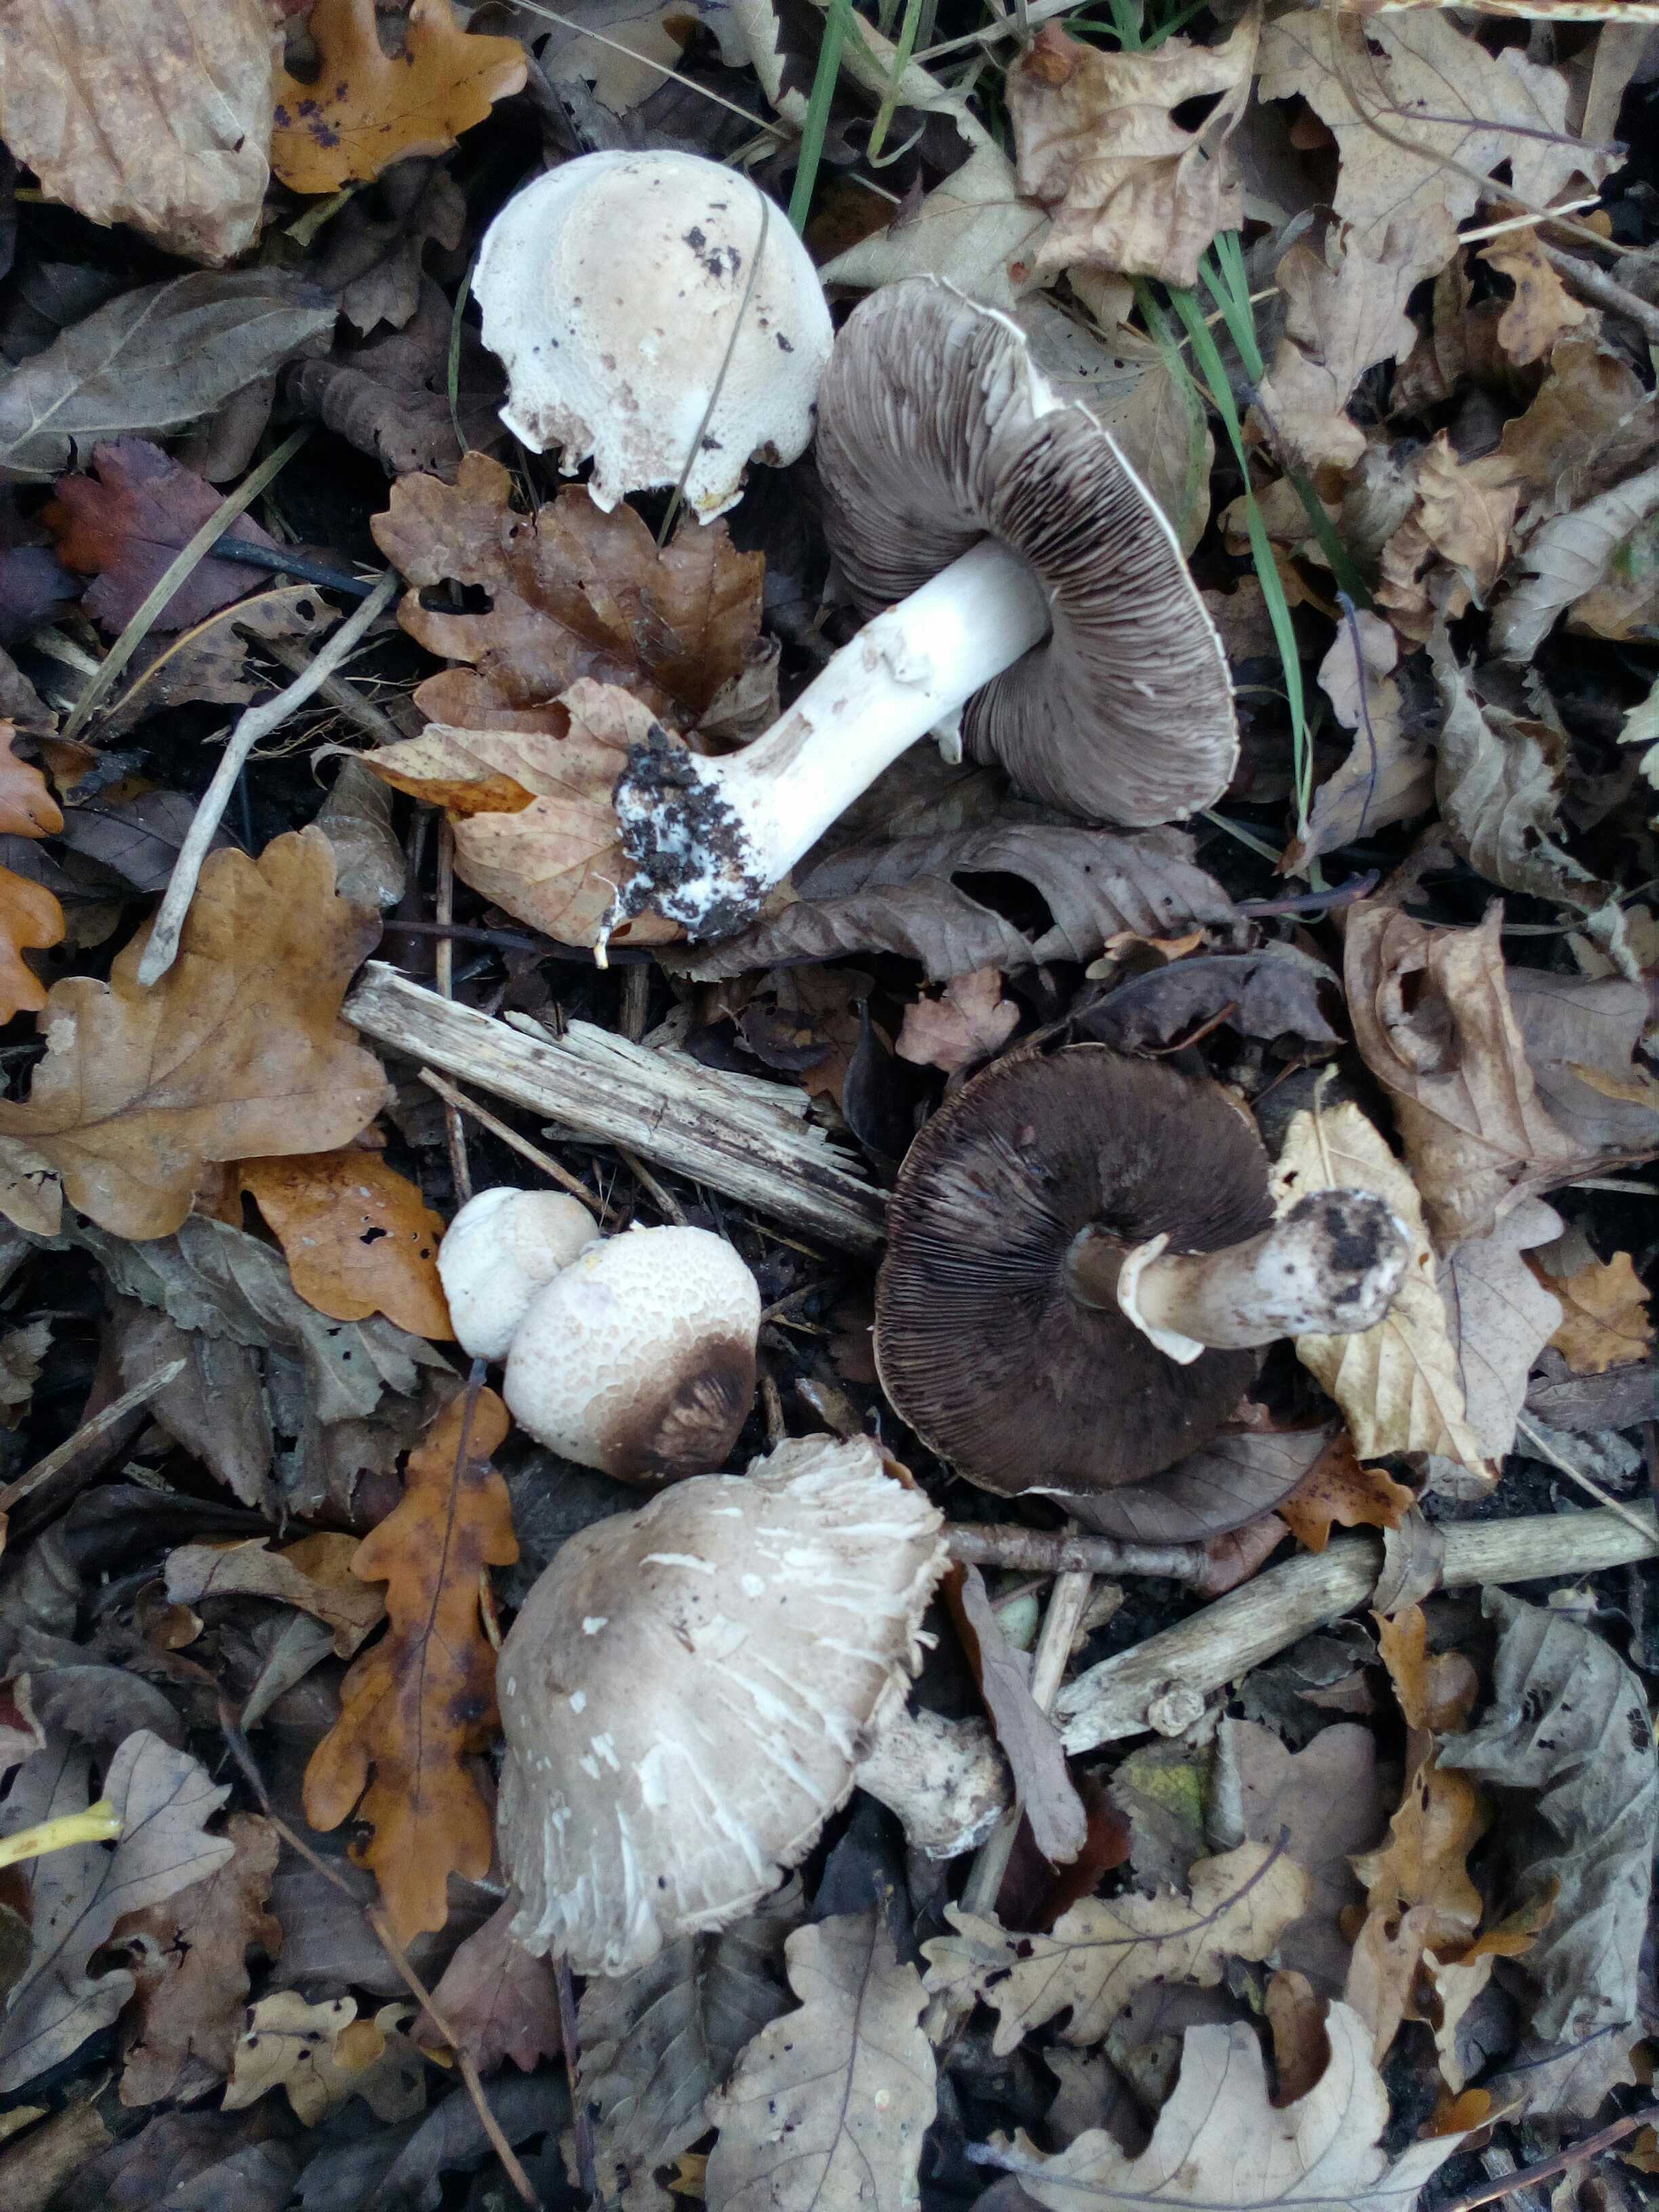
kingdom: Fungi
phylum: Basidiomycota
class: Agaricomycetes
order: Agaricales
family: Agaricaceae
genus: Agaricus
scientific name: Agaricus xanthodermus
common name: karbol-champignon
